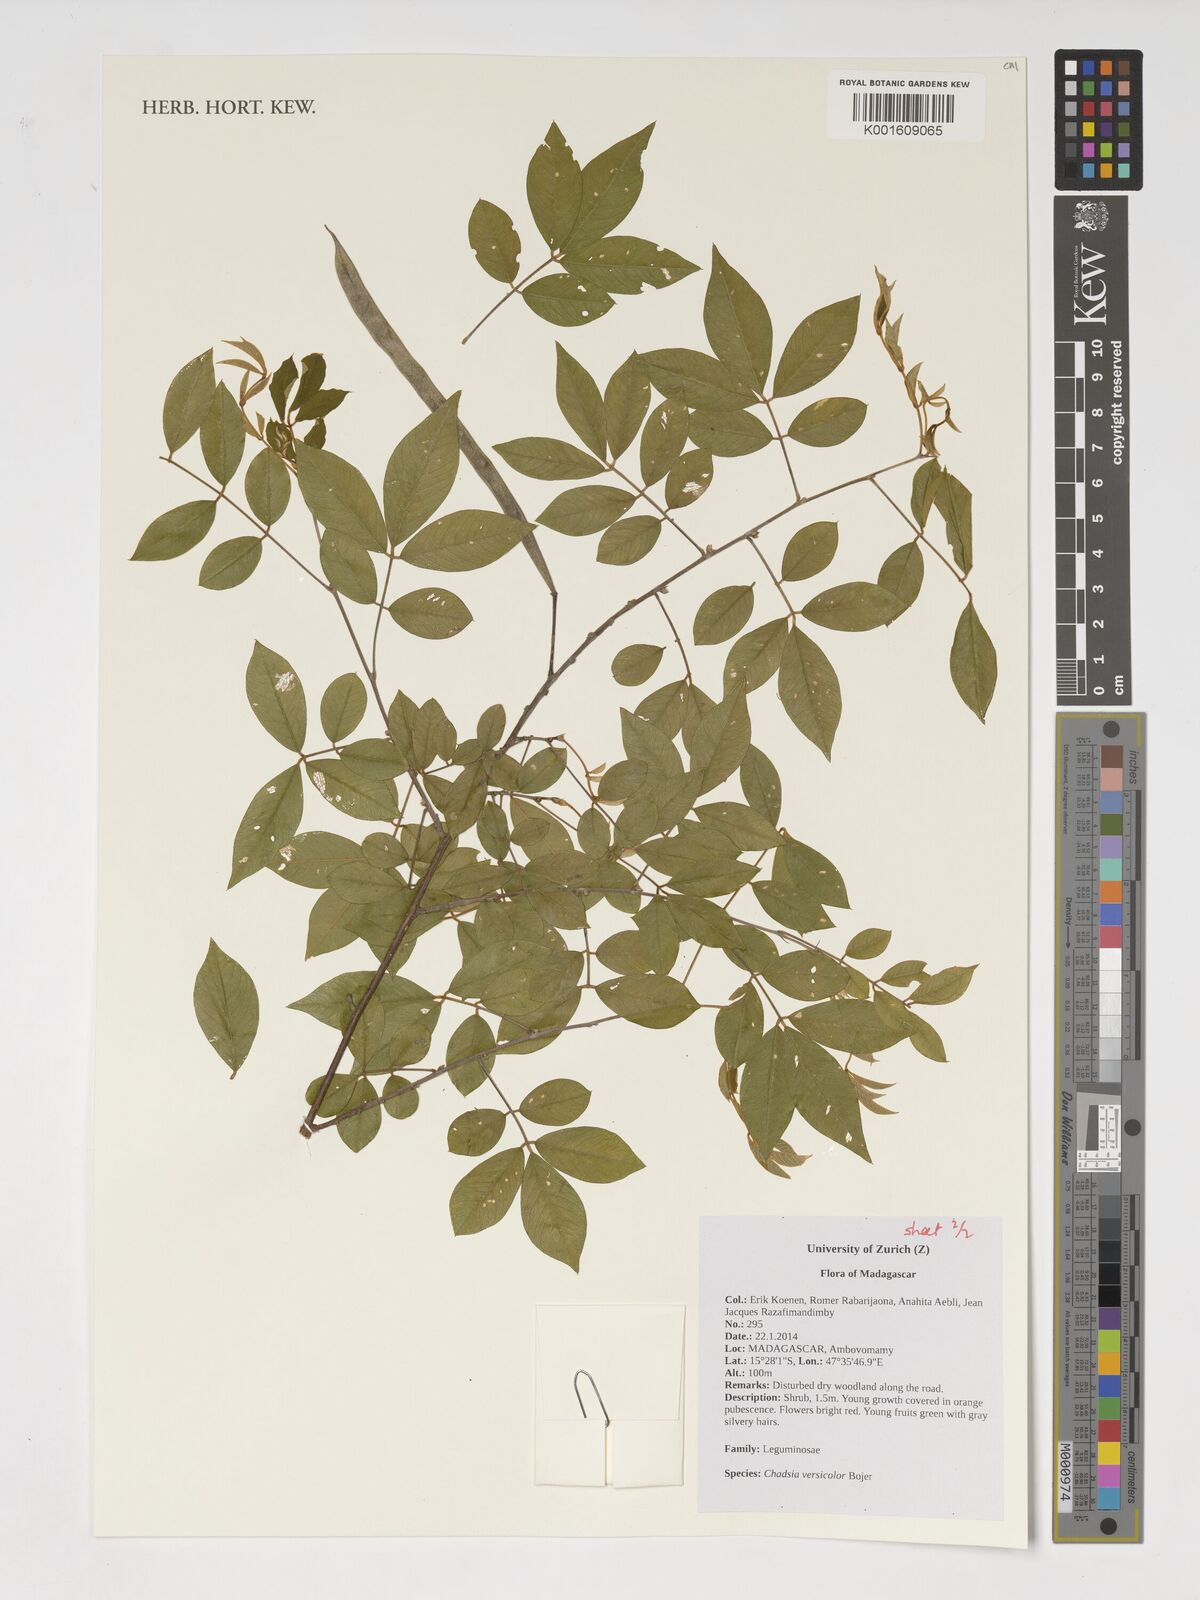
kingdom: Plantae
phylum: Tracheophyta
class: Magnoliopsida
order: Fabales
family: Fabaceae
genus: Chadsia
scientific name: Chadsia versicolor
